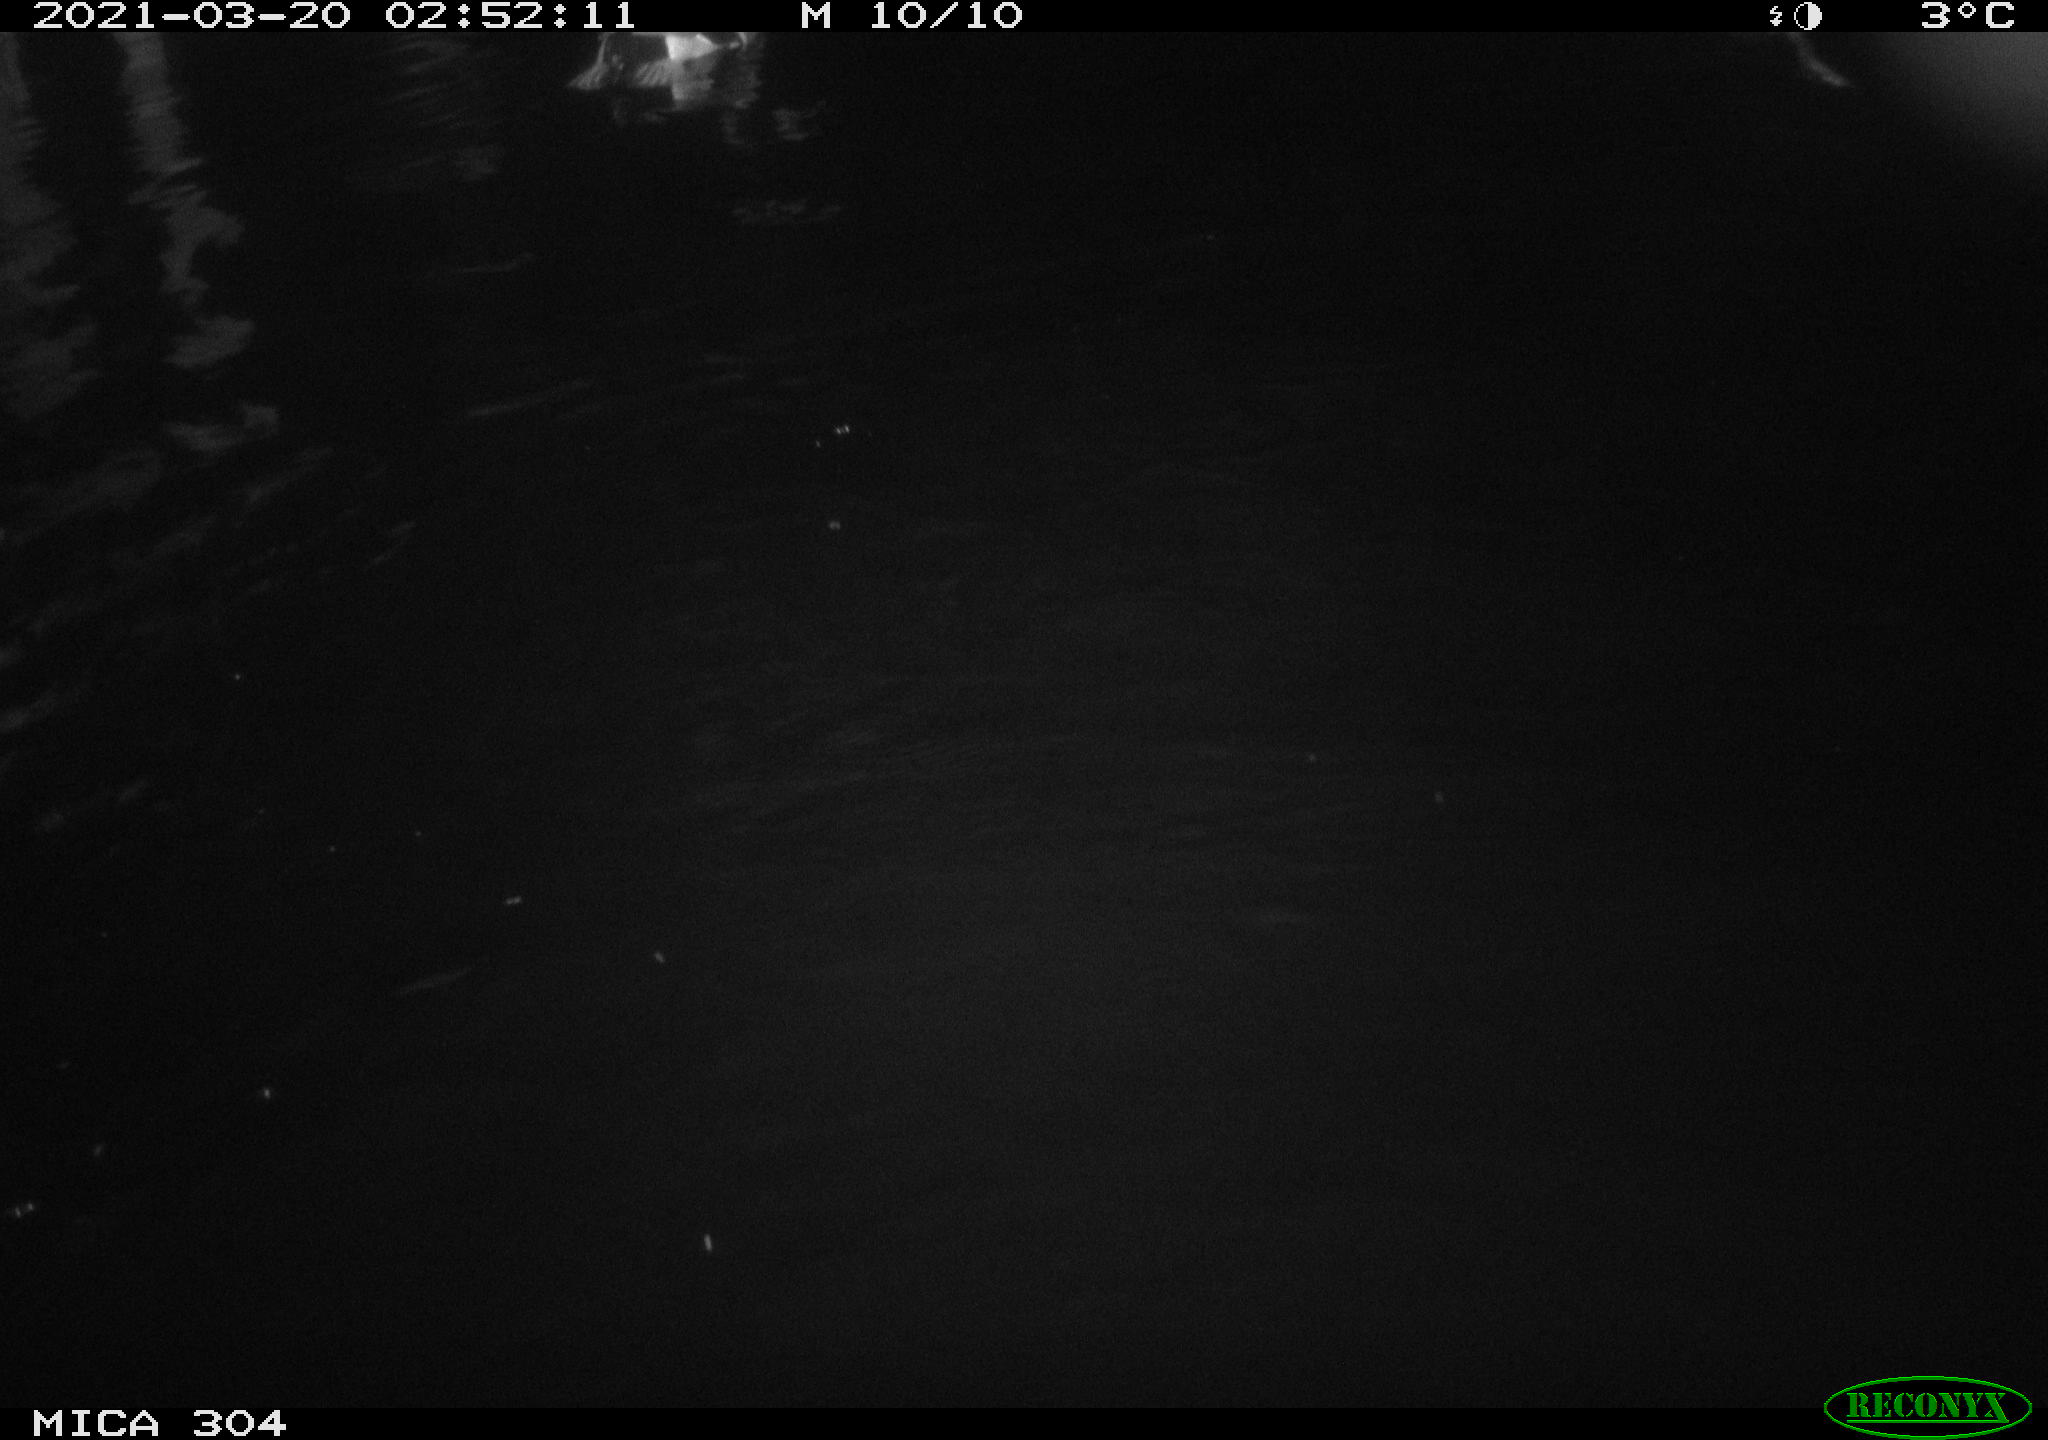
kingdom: Animalia
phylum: Chordata
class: Aves
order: Anseriformes
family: Anatidae
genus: Anas
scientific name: Anas platyrhynchos
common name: Mallard
